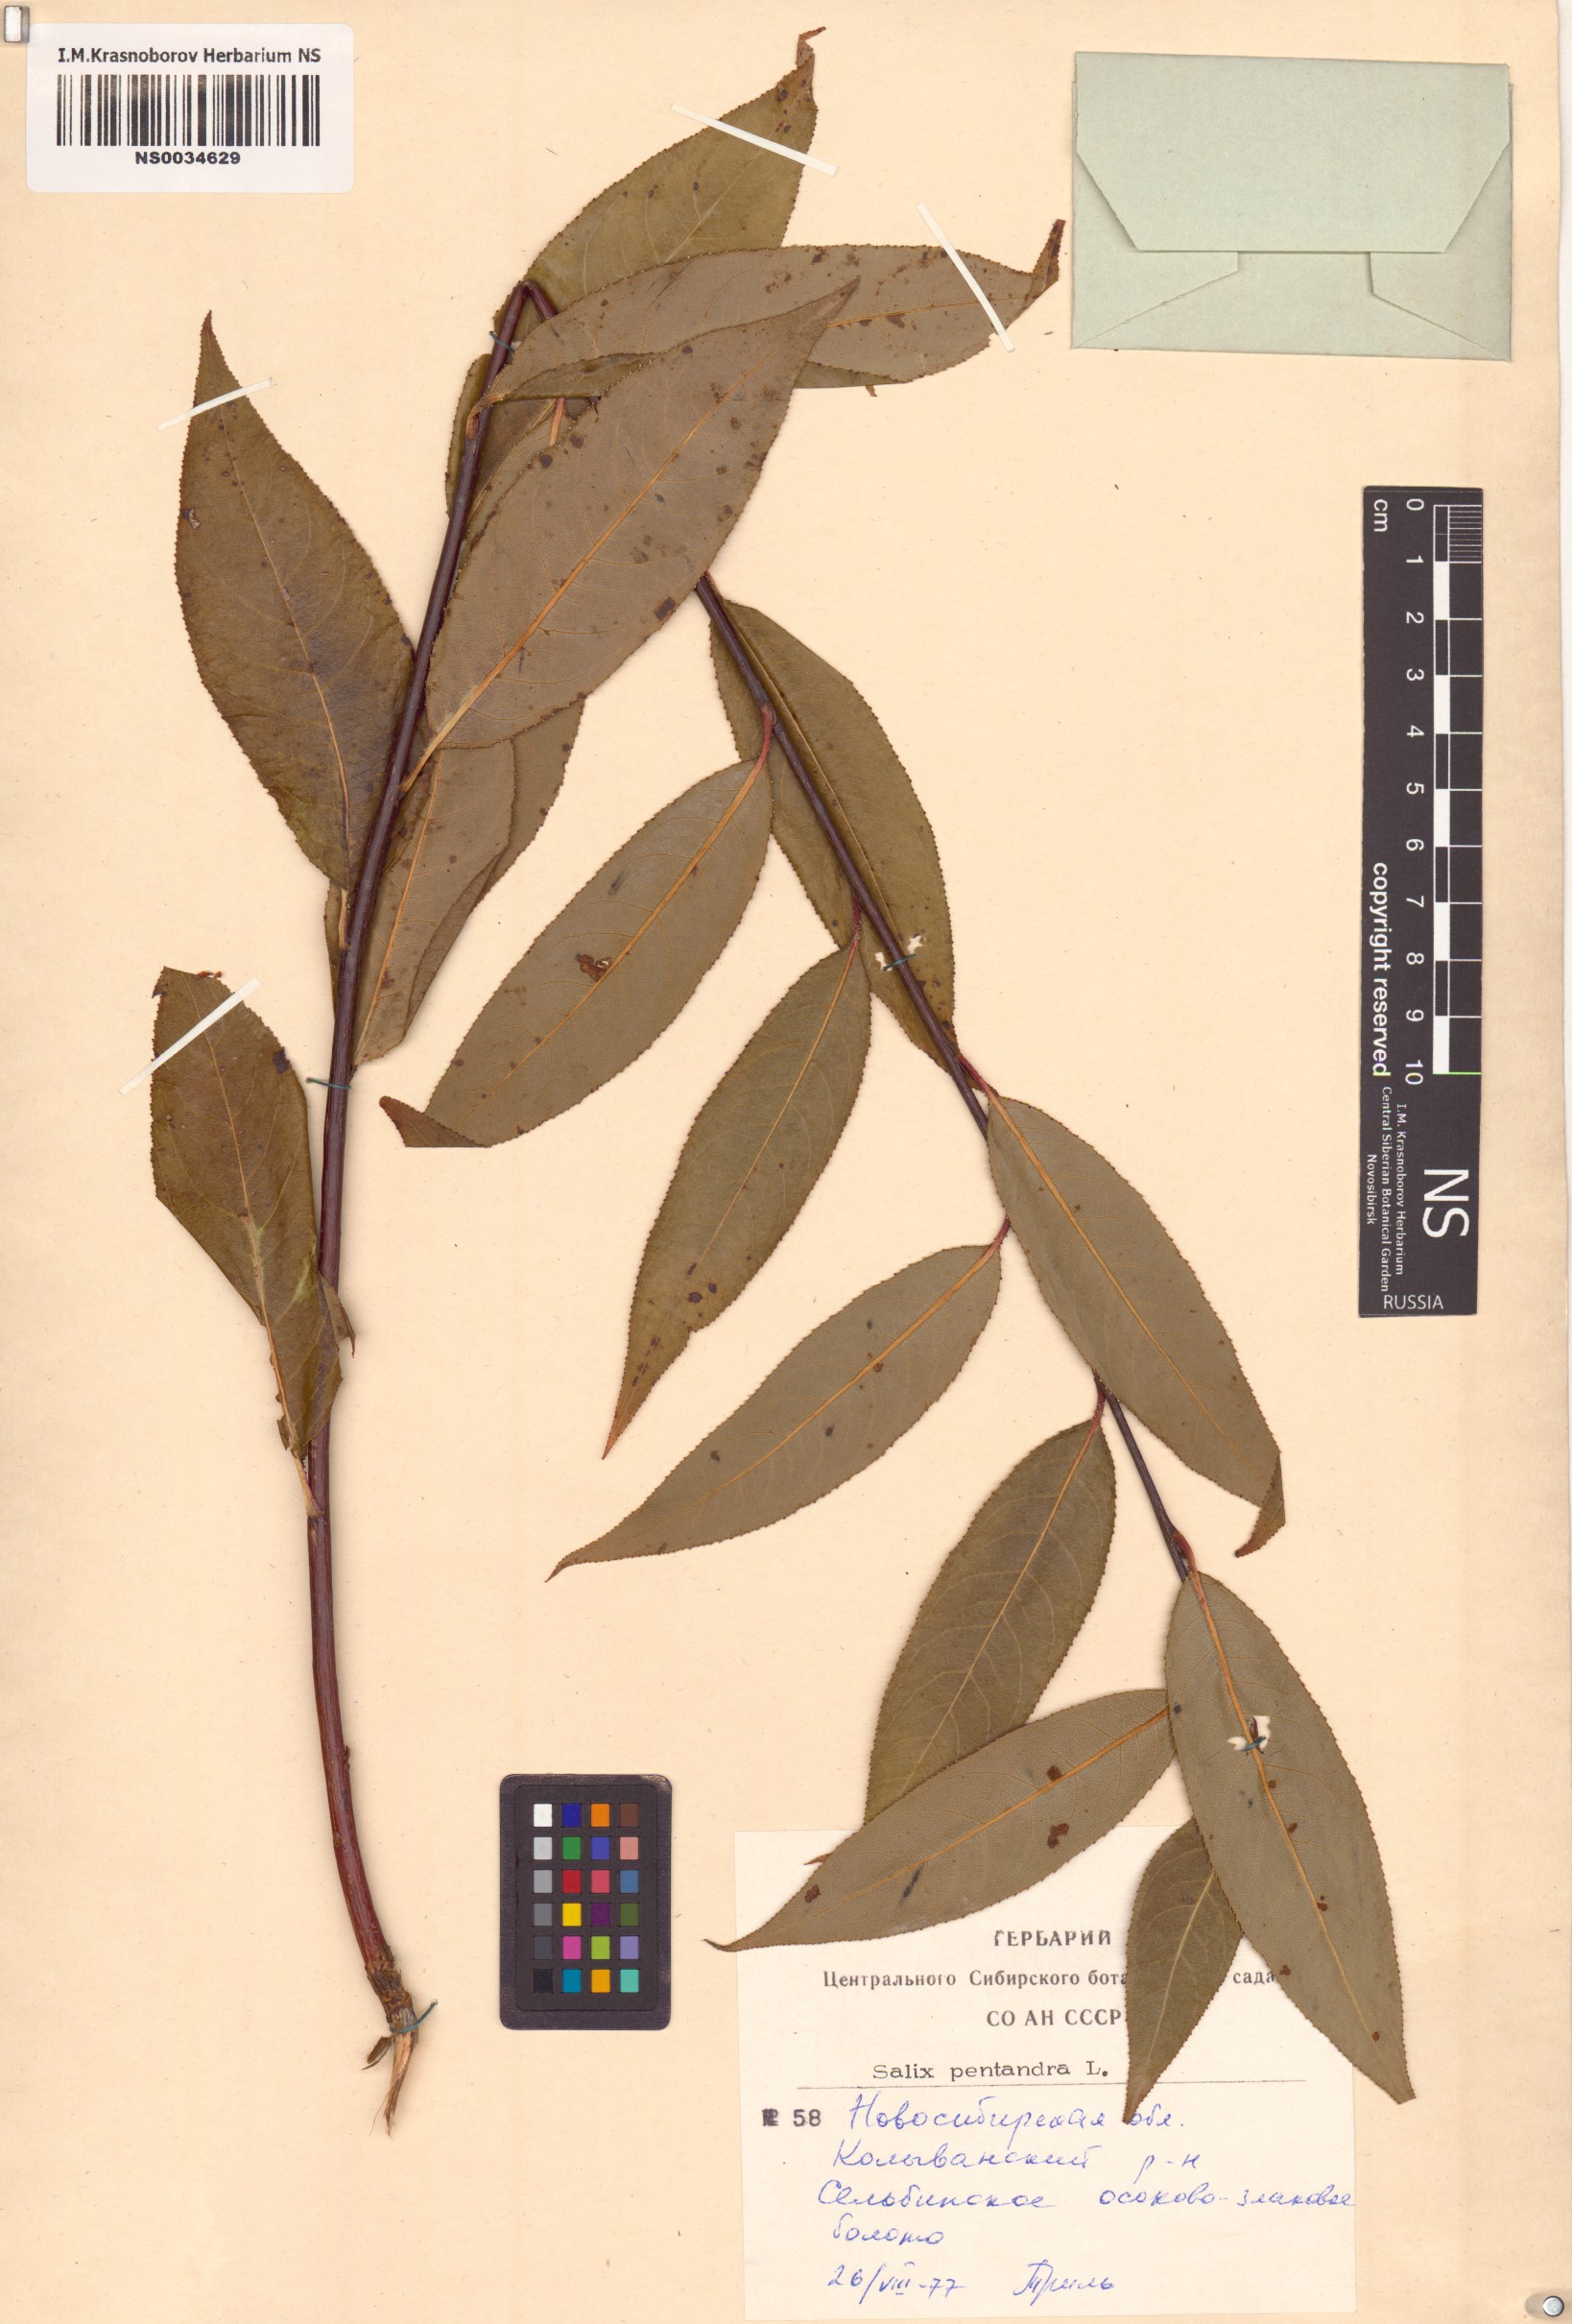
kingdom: Plantae
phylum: Tracheophyta
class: Magnoliopsida
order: Malpighiales
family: Salicaceae
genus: Salix
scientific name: Salix pentandra
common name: Bay willow
